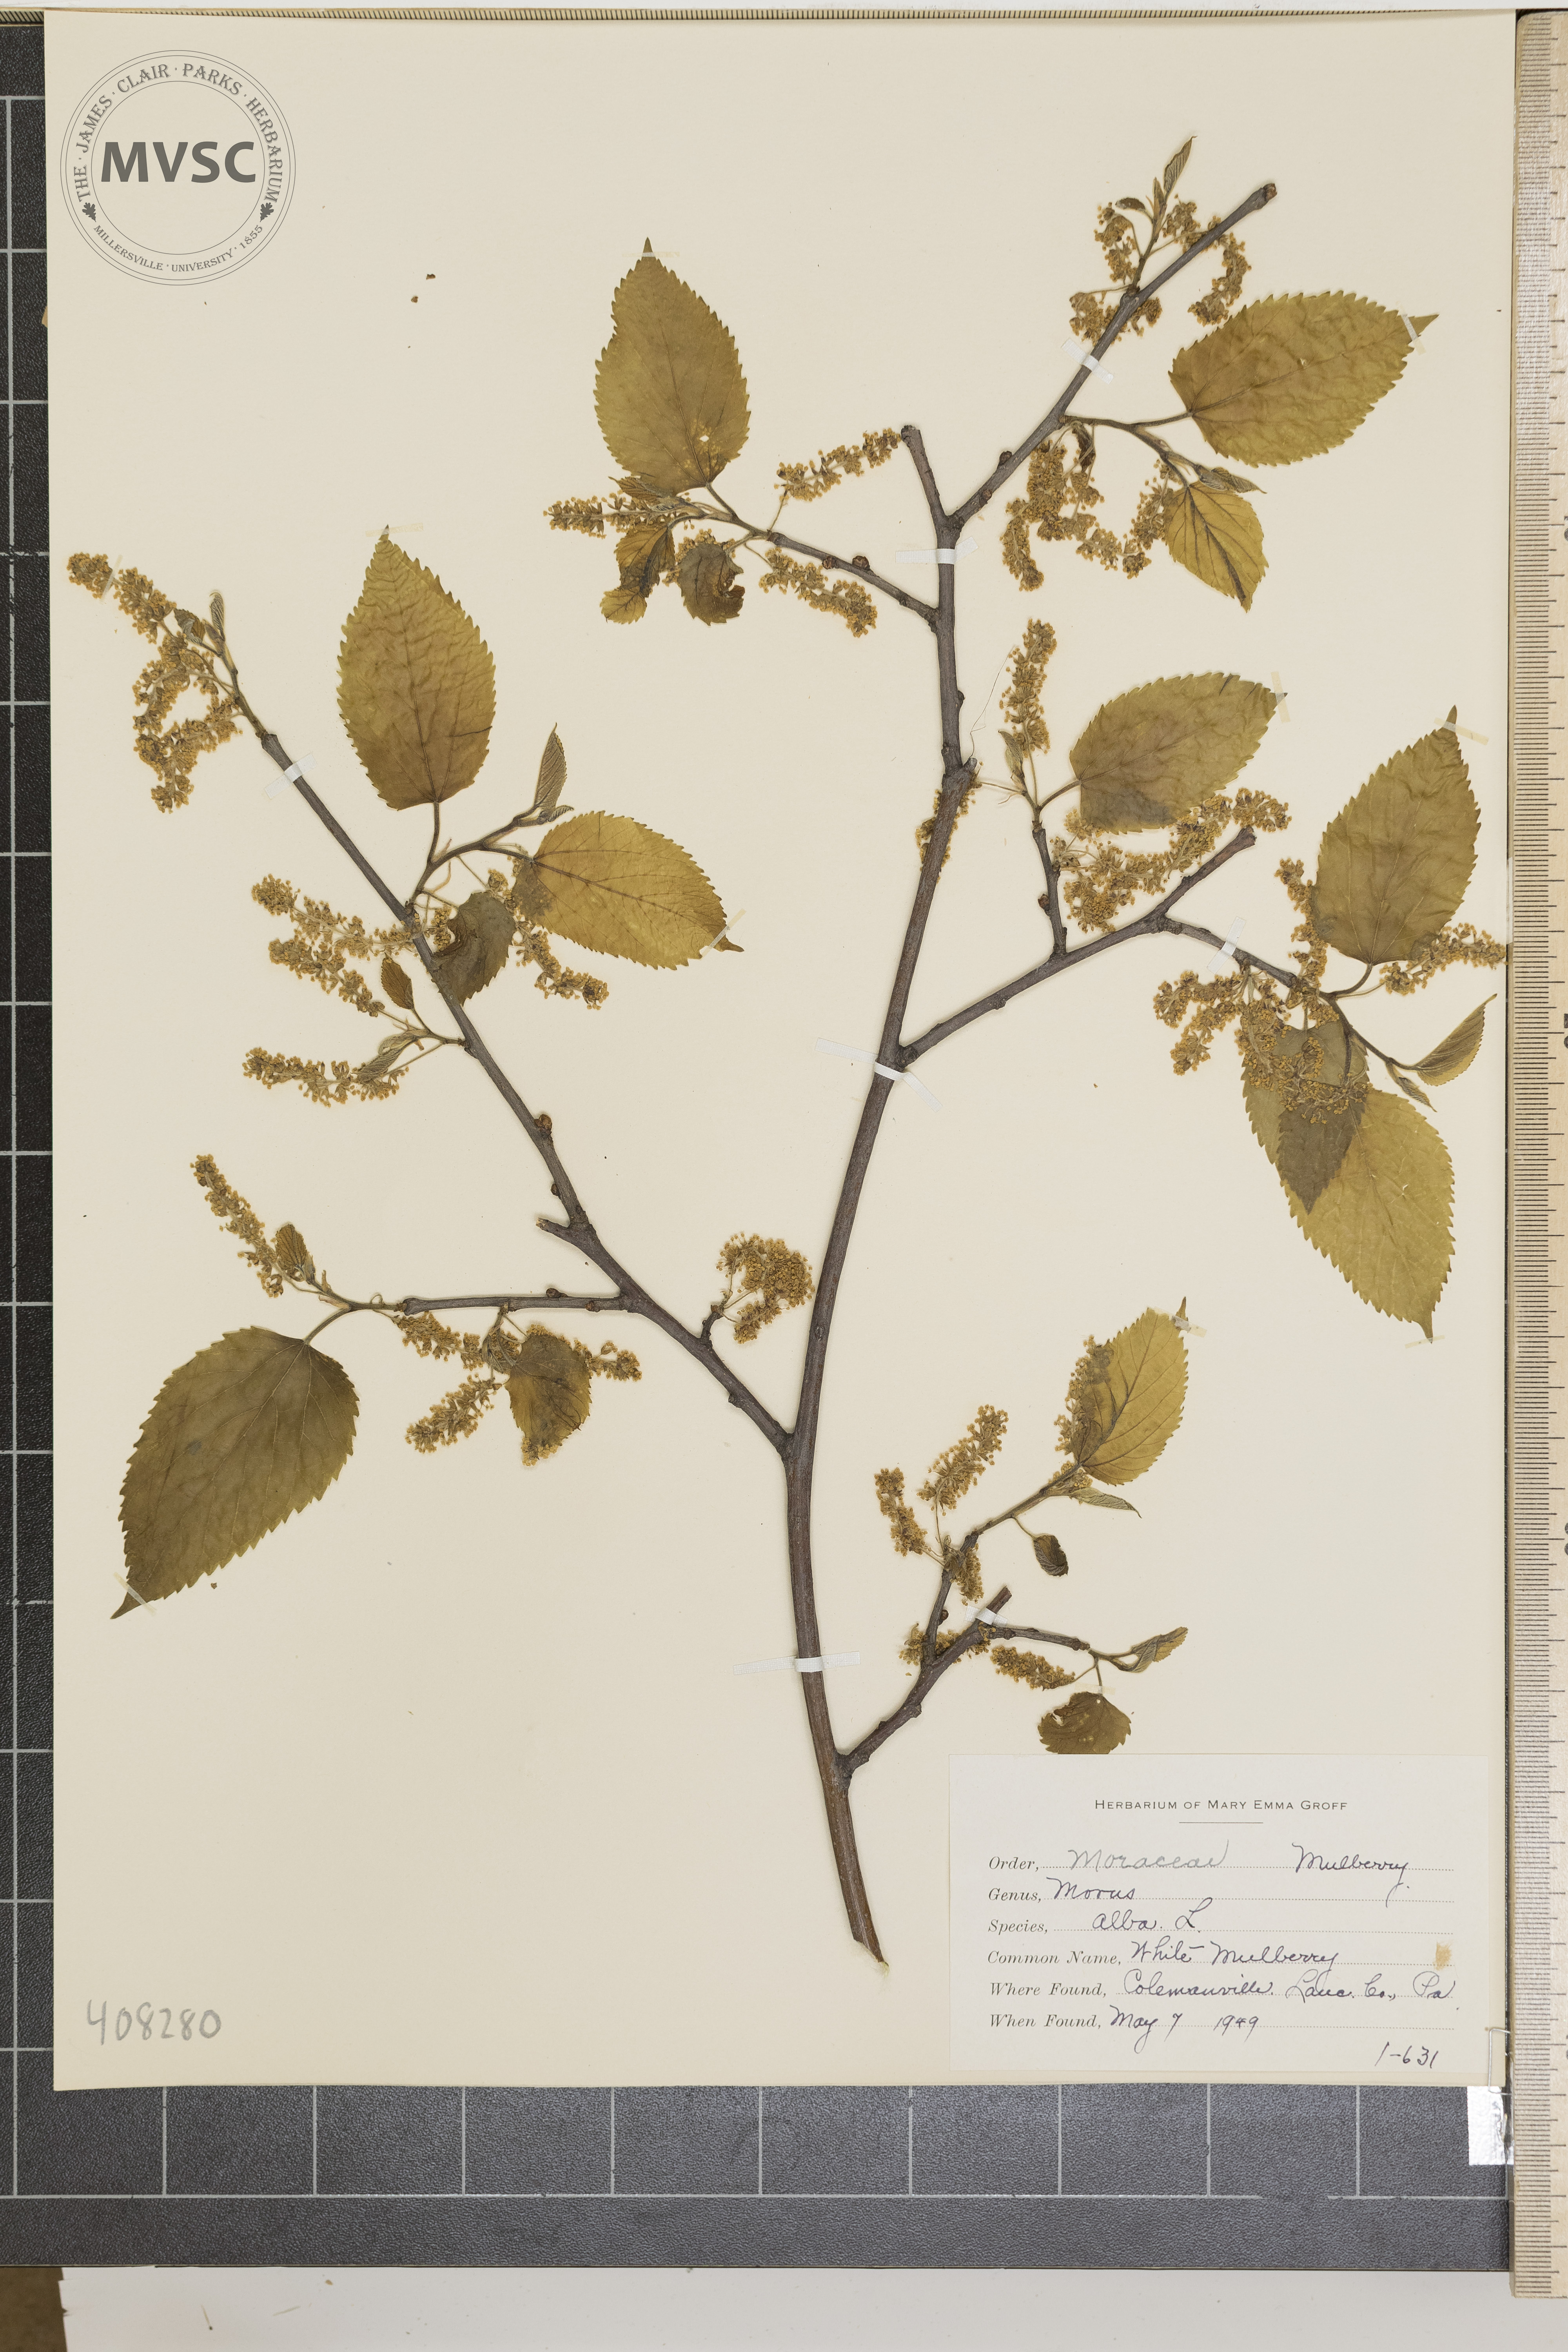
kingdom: Plantae
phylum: Tracheophyta
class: Magnoliopsida
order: Rosales
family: Moraceae
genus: Morus
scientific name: Morus alba
